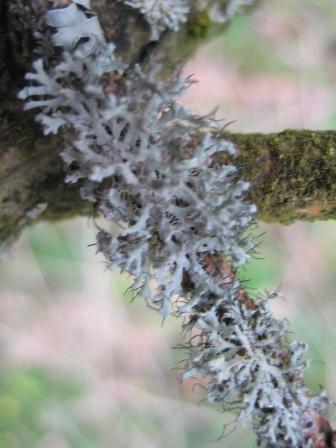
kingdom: Fungi
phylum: Ascomycota
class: Lecanoromycetes
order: Caliciales
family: Physciaceae
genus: Physcia
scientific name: Physcia tenella
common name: spæd rosetlav
